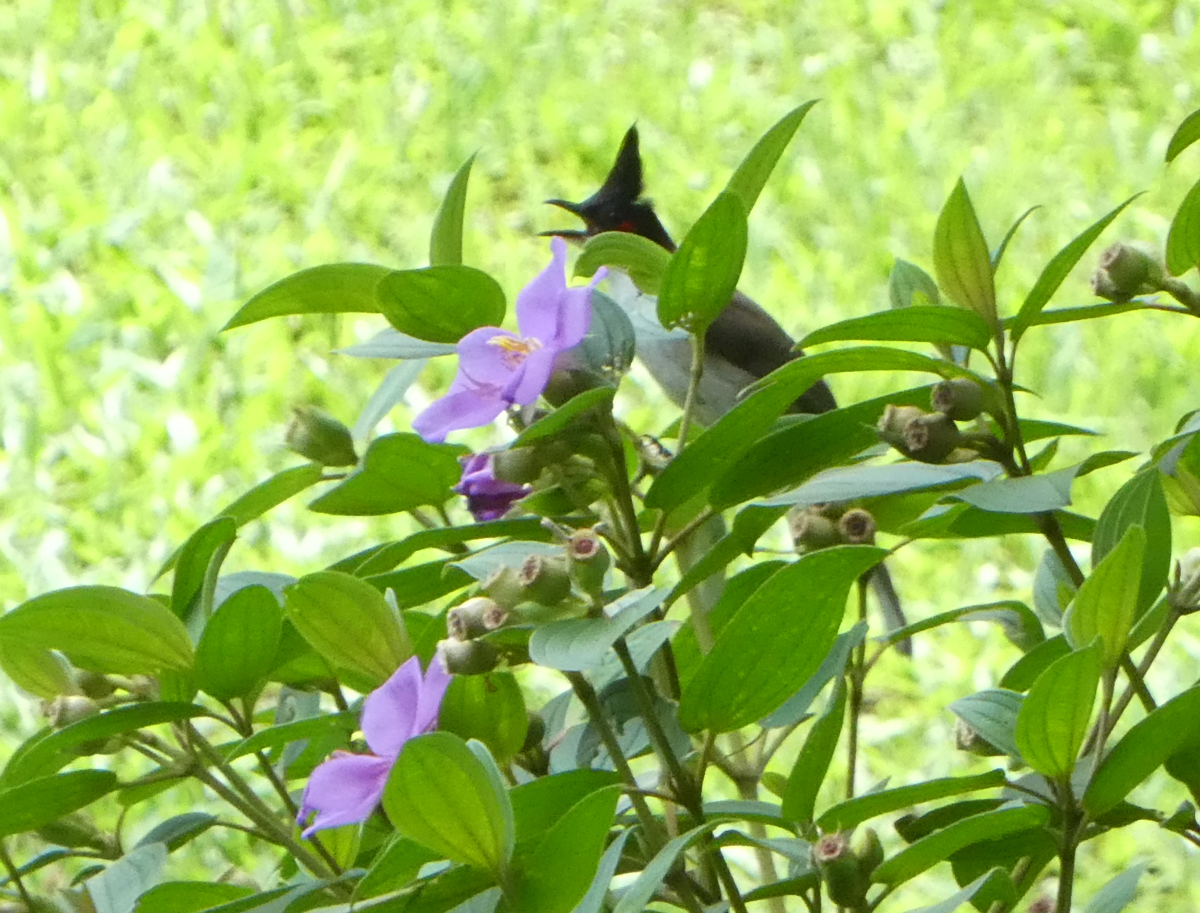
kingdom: Animalia
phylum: Chordata
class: Aves
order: Passeriformes
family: Pycnonotidae
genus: Pycnonotus
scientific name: Pycnonotus jocosus
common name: Red-whiskered bulbul
